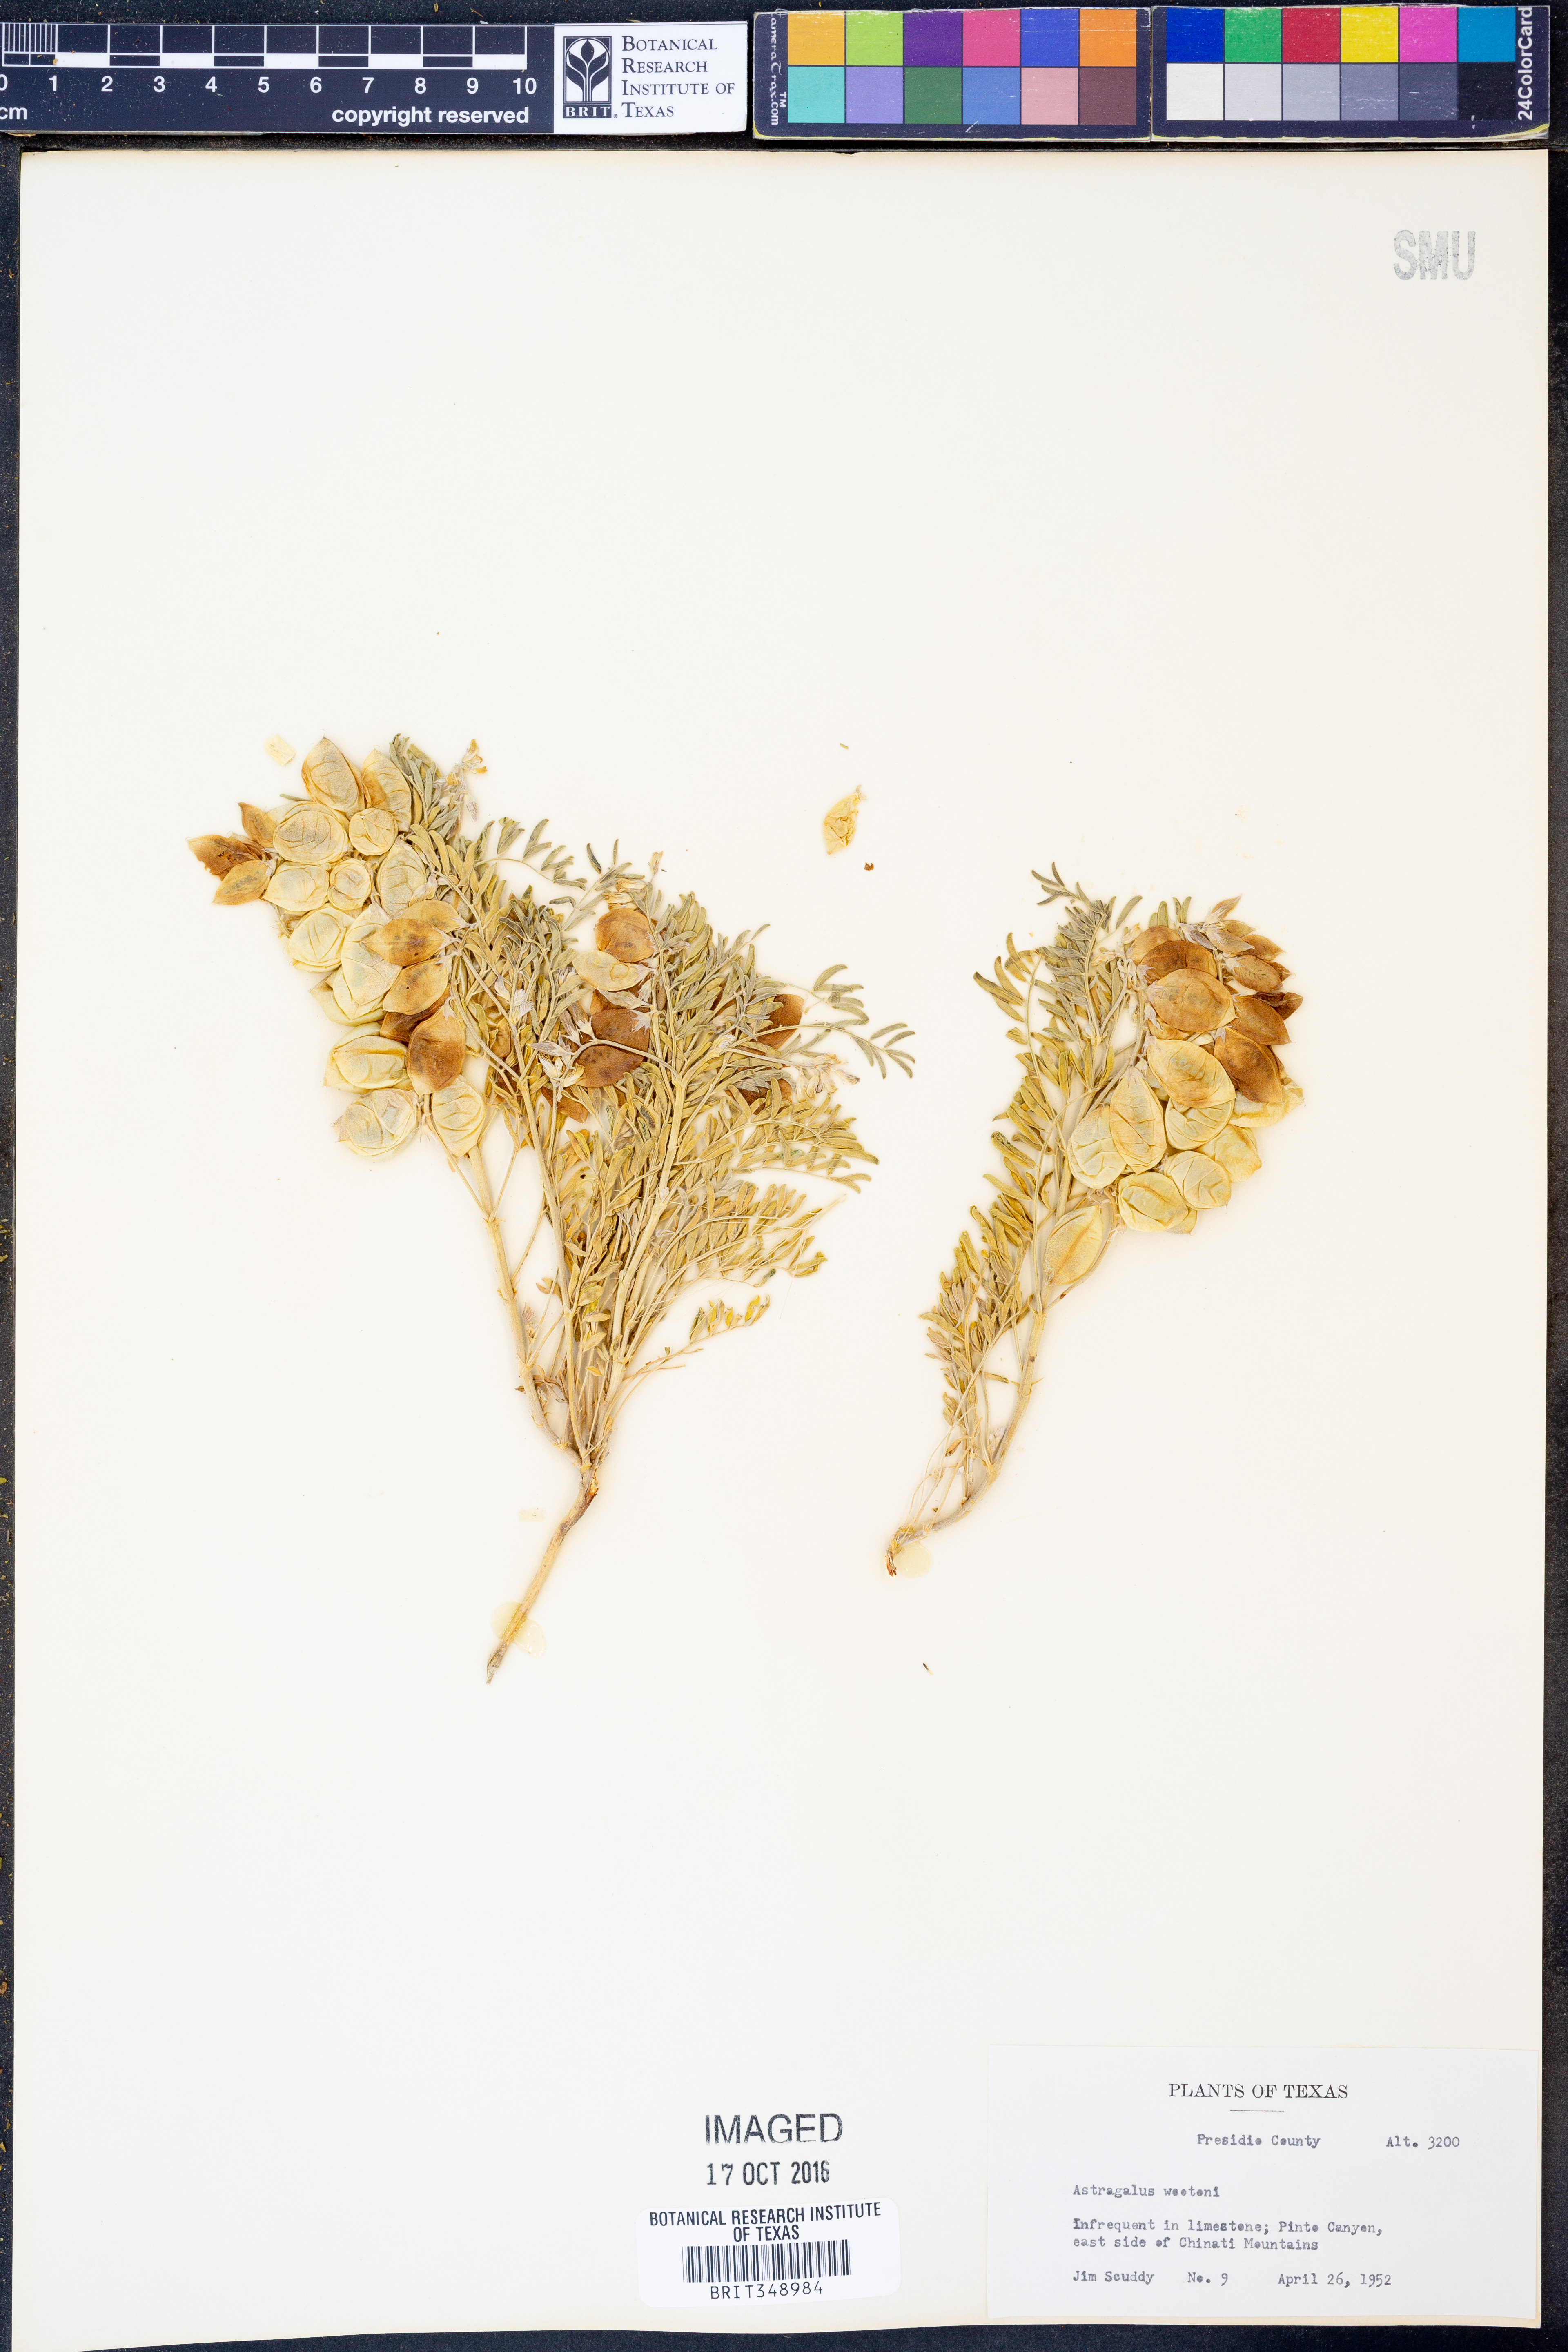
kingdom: Plantae
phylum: Tracheophyta
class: Magnoliopsida
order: Fabales
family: Fabaceae
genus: Astragalus
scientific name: Astragalus wootonii
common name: Wooton's milk-vetch
